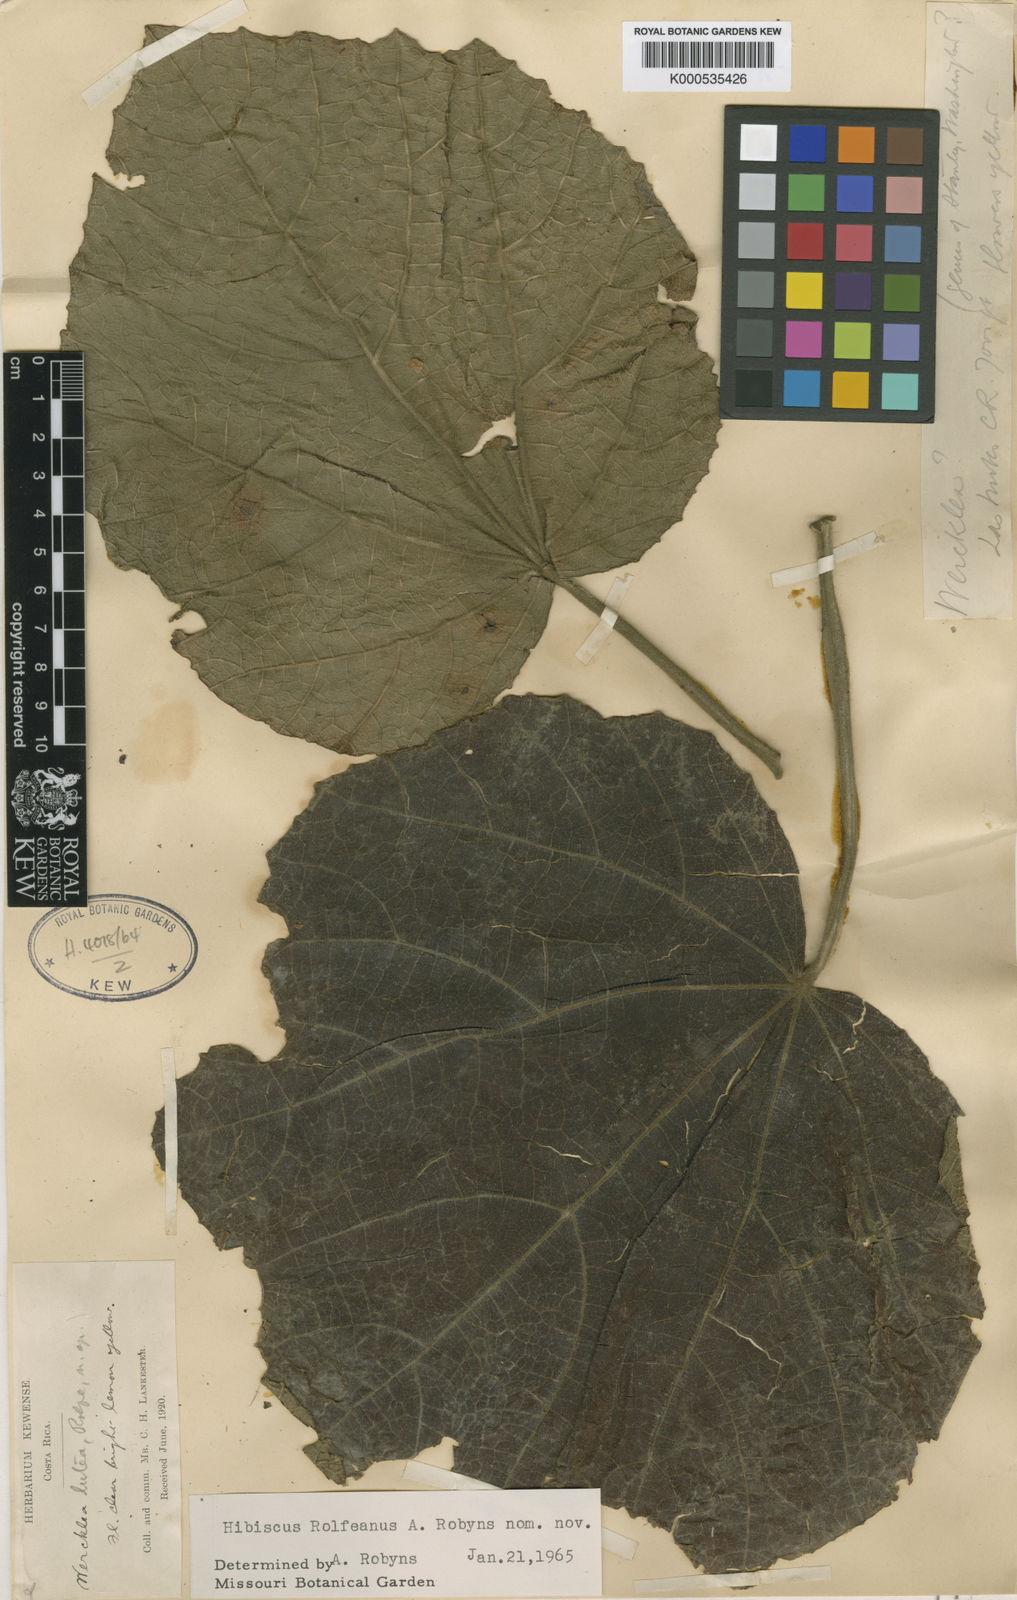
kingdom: Plantae
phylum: Tracheophyta
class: Magnoliopsida
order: Malvales
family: Malvaceae
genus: Wercklea
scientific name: Wercklea lutea
